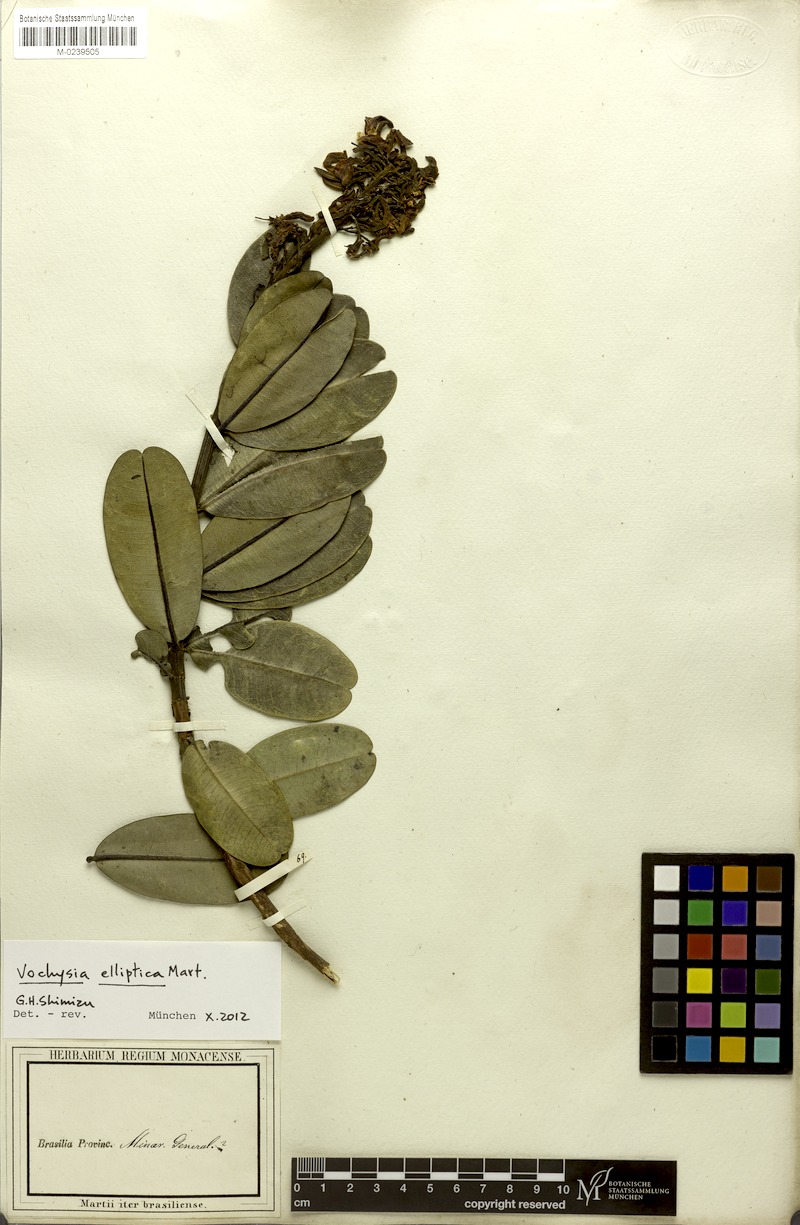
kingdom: Plantae
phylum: Tracheophyta
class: Magnoliopsida
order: Myrtales
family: Vochysiaceae
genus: Vochysia
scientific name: Vochysia elliptica
